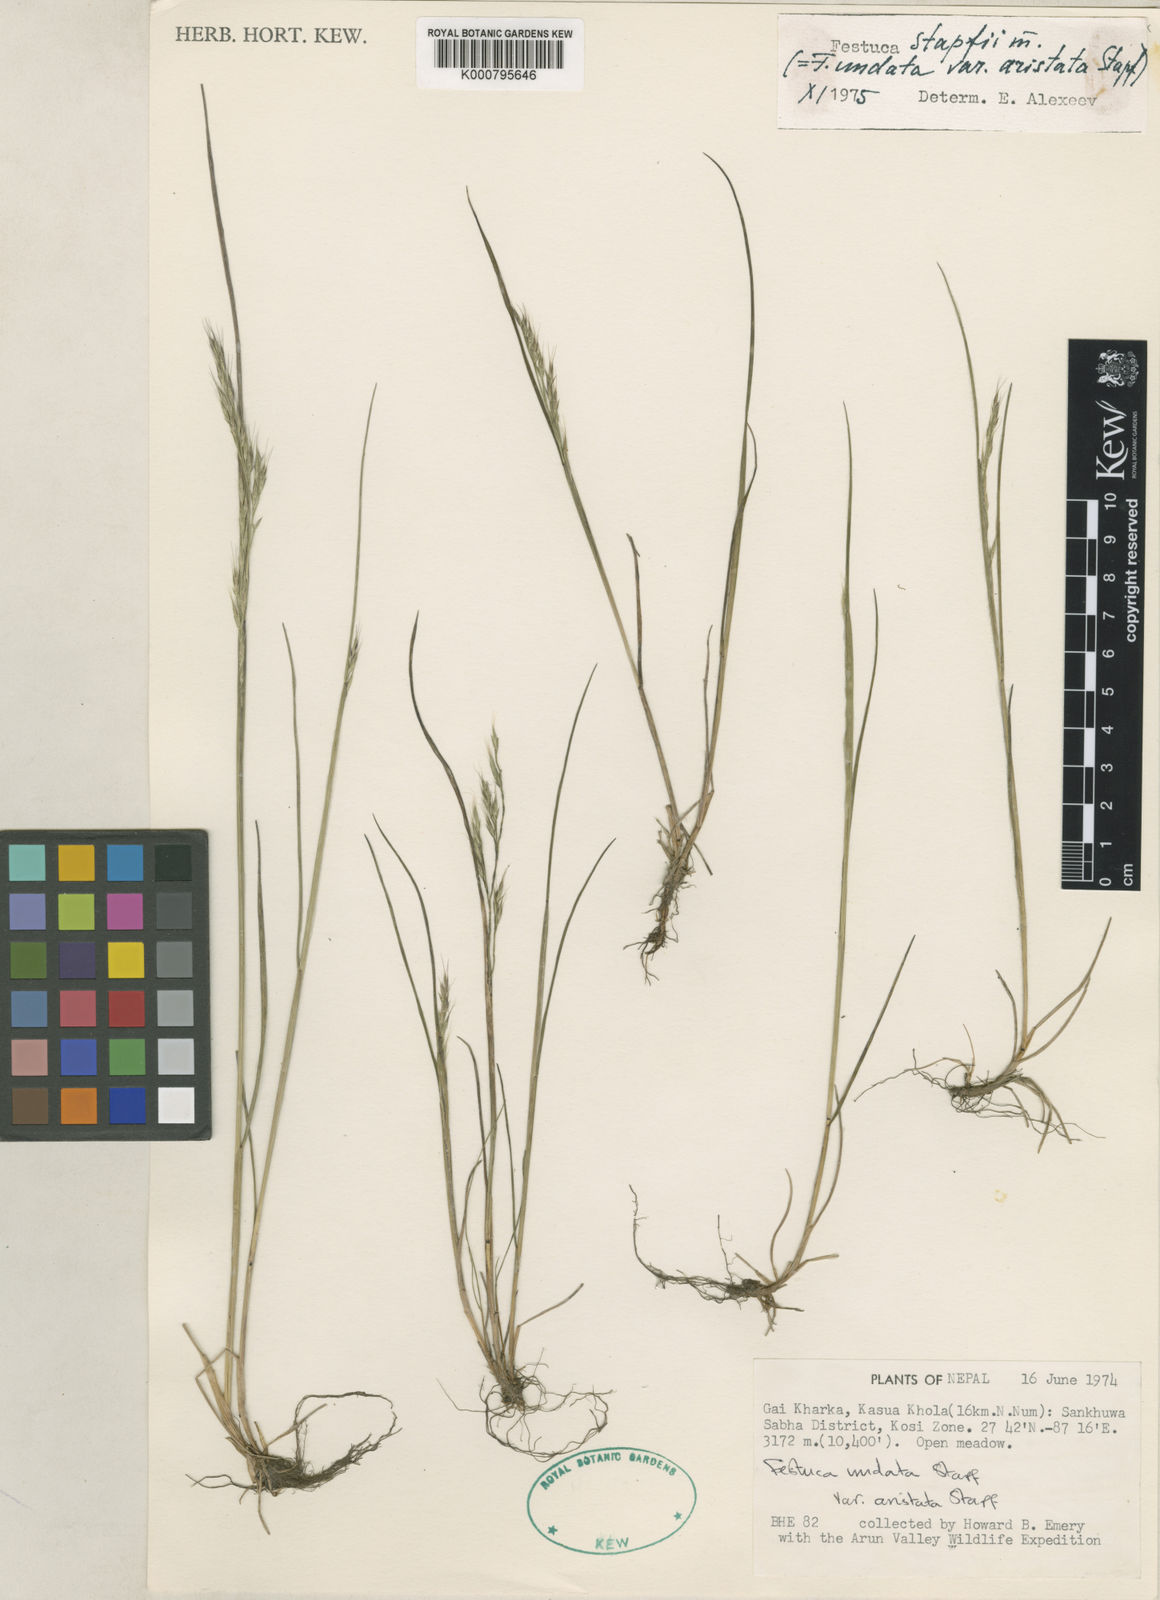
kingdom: Plantae
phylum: Tracheophyta
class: Liliopsida
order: Poales
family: Poaceae
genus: Festuca
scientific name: Festuca undata
